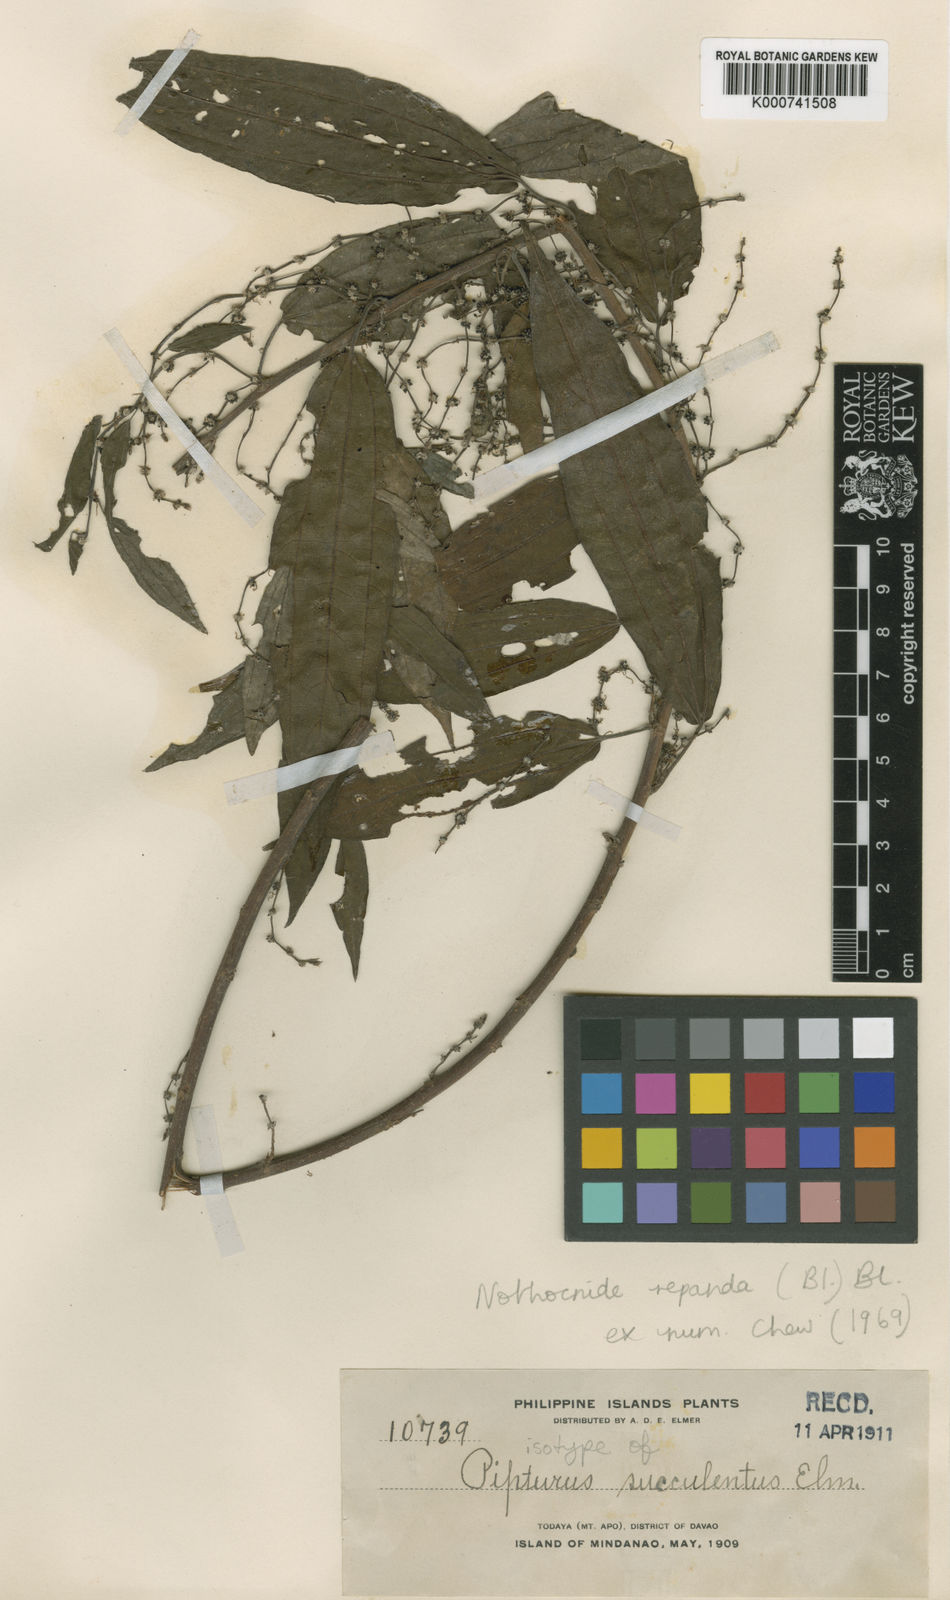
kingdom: Plantae
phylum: Tracheophyta
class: Magnoliopsida
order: Rosales
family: Urticaceae
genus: Nothocnide
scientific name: Nothocnide repanda
